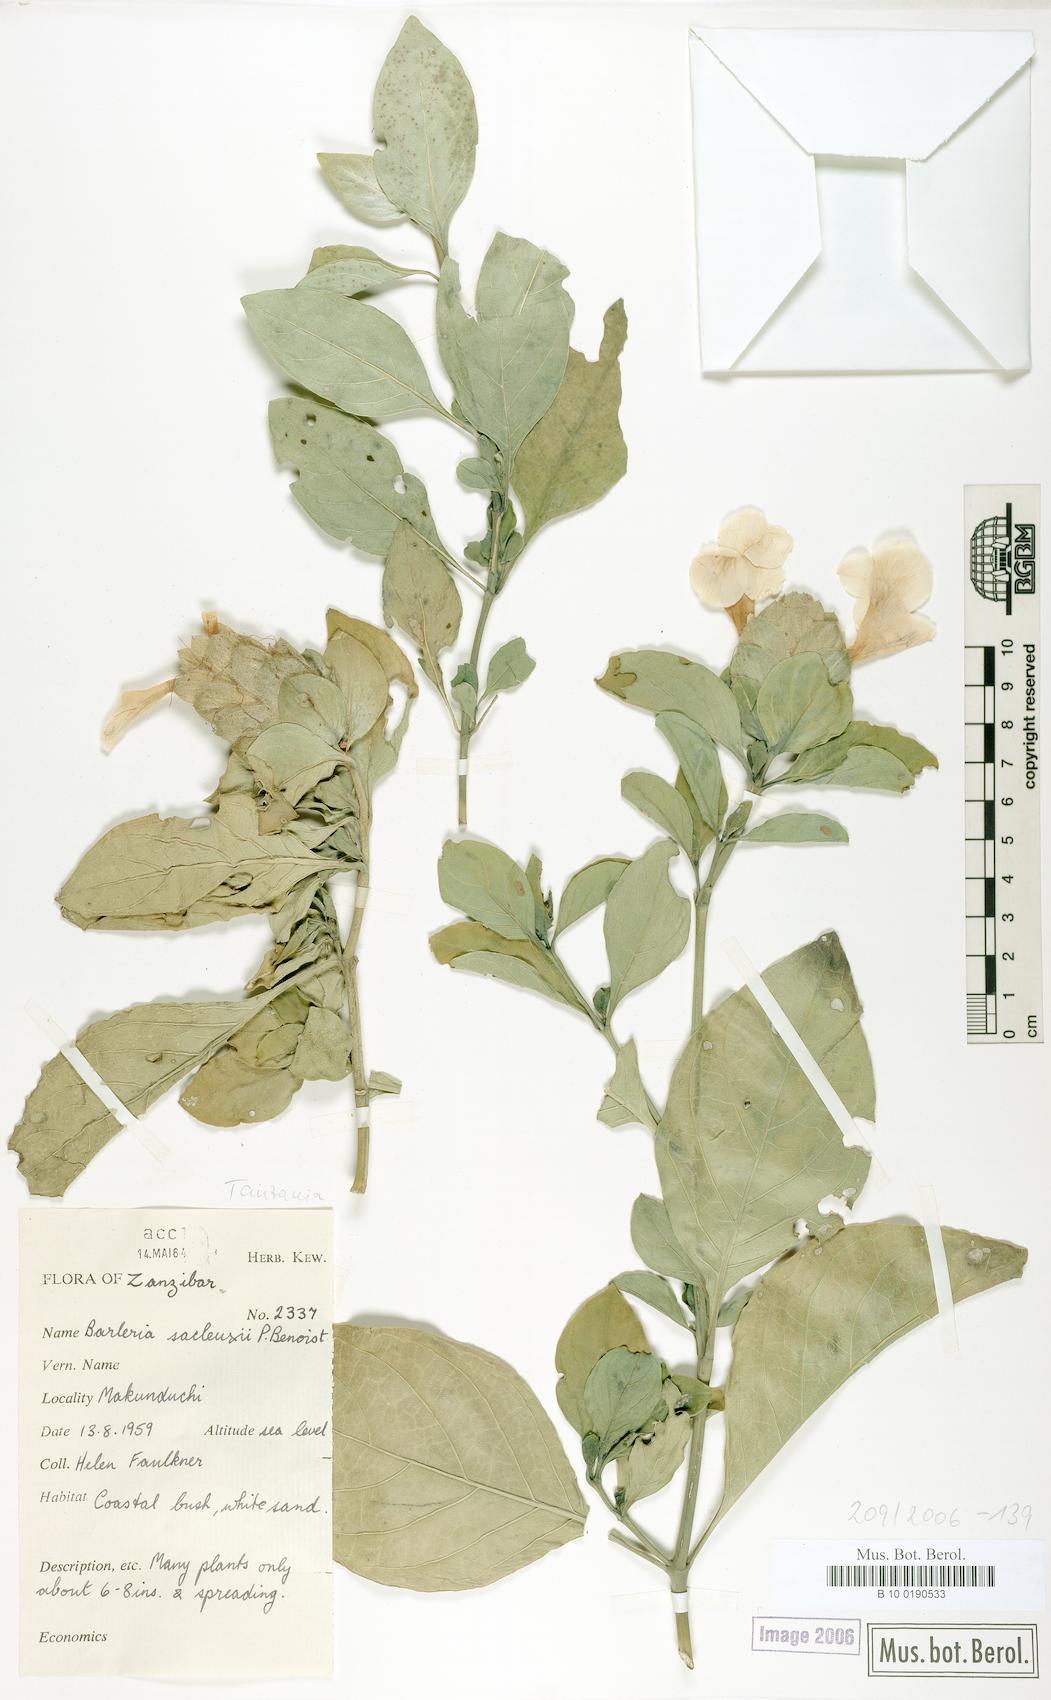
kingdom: Plantae
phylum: Tracheophyta
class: Magnoliopsida
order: Lamiales
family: Acanthaceae
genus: Barleria
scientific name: Barleria rhynchocarpa
